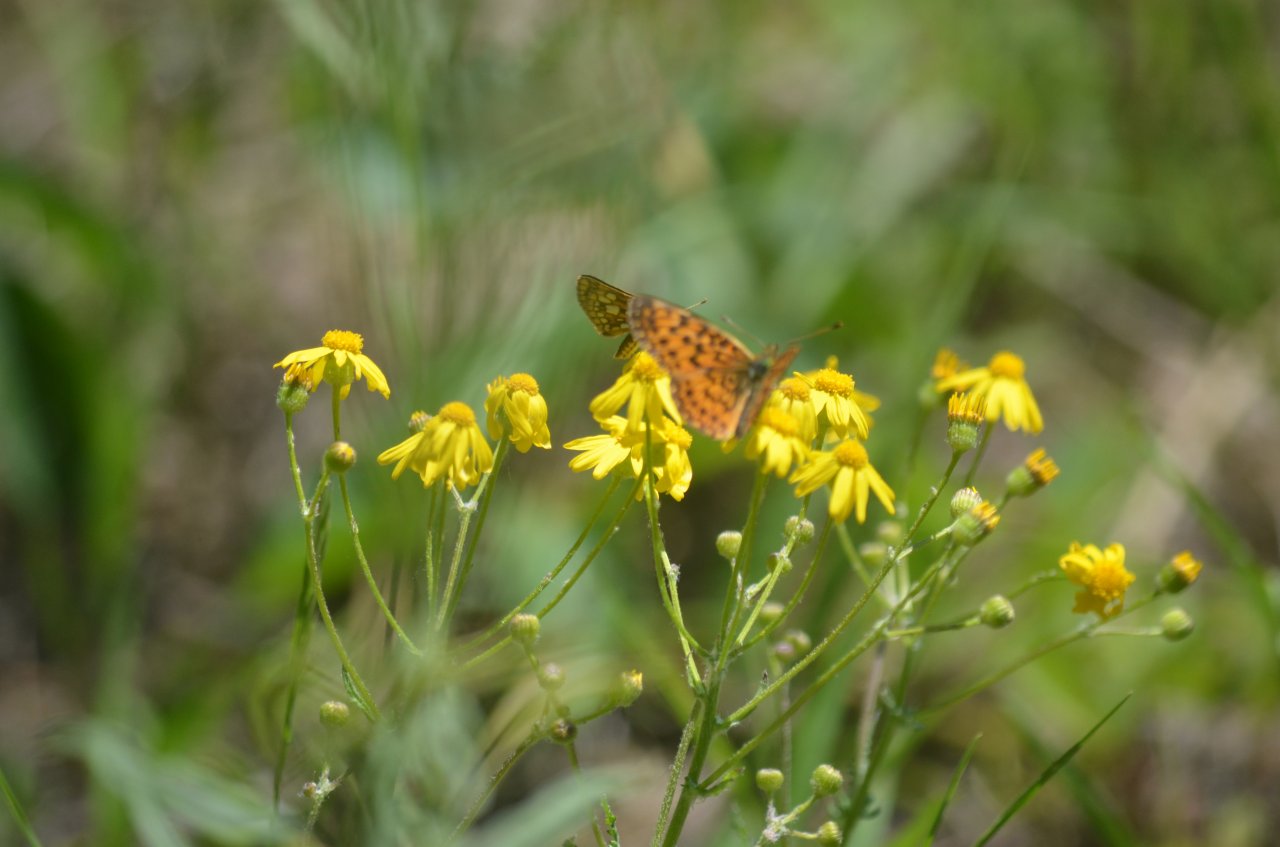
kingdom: Animalia
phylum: Arthropoda
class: Insecta
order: Lepidoptera
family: Nymphalidae
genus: Boloria
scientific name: Boloria selene
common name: Silver-bordered Fritillary
